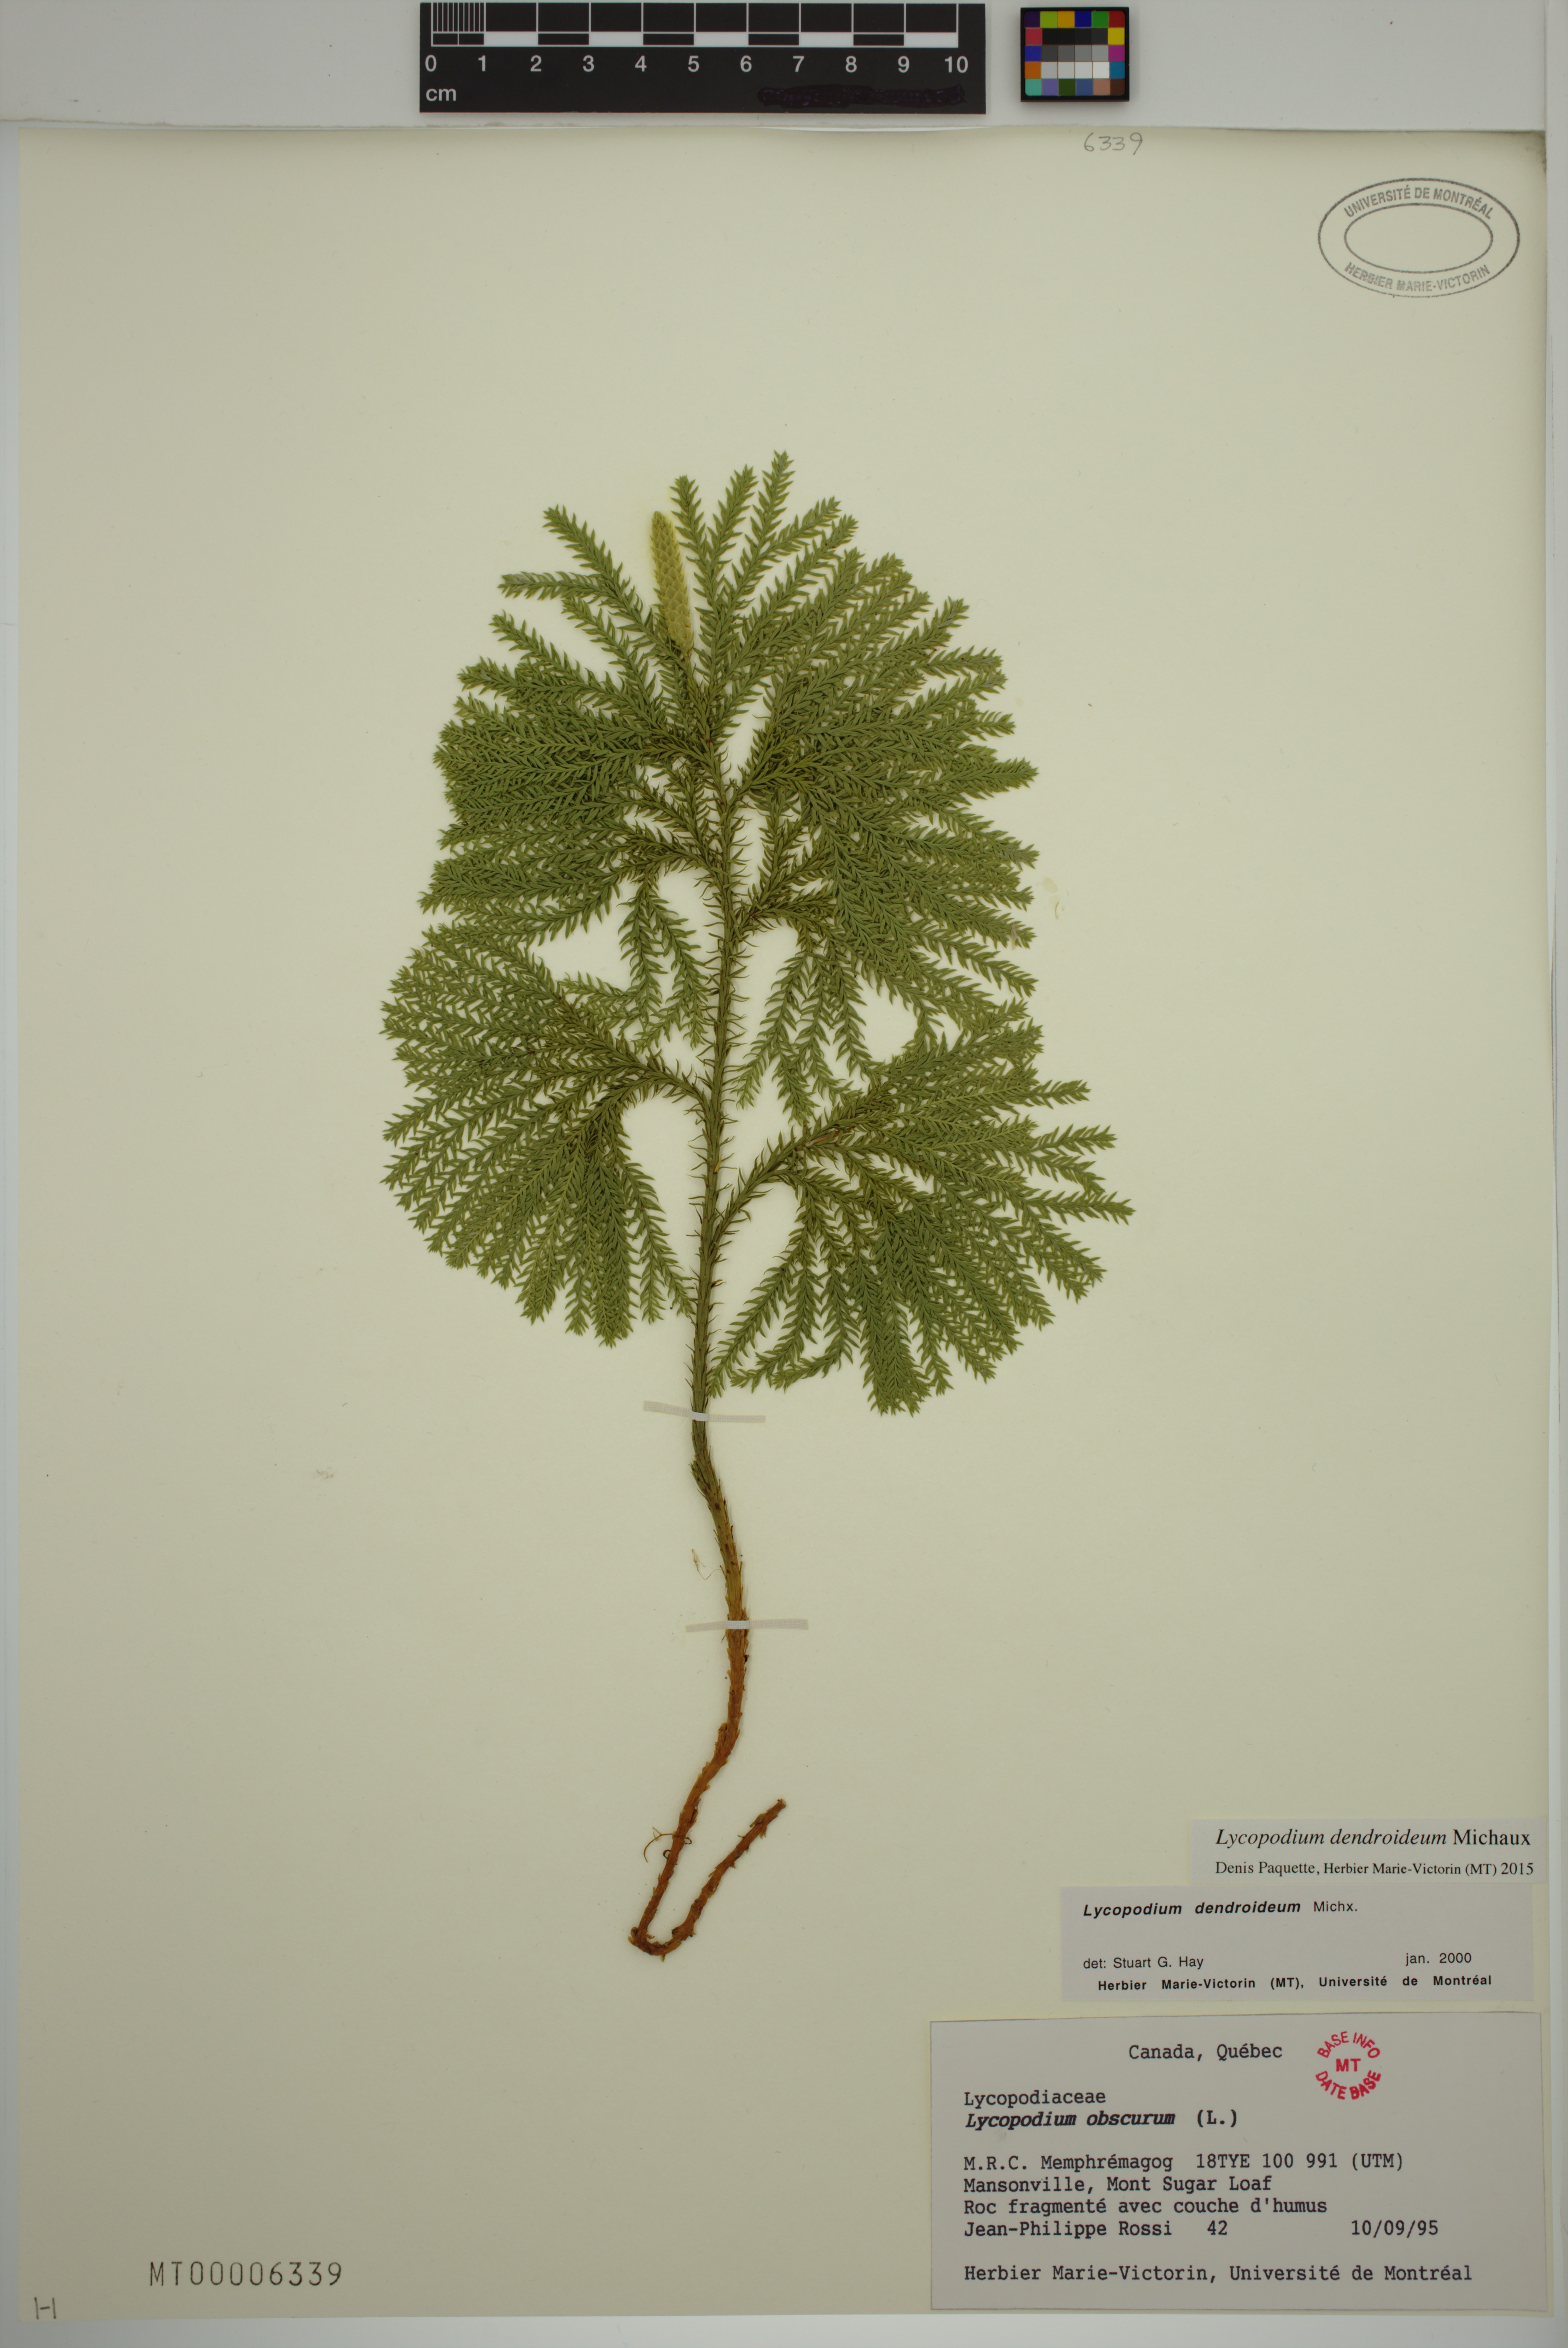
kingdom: Plantae
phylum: Tracheophyta
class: Lycopodiopsida
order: Lycopodiales
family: Lycopodiaceae
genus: Dendrolycopodium
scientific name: Dendrolycopodium dendroideum
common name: Northern tree-clubmoss
